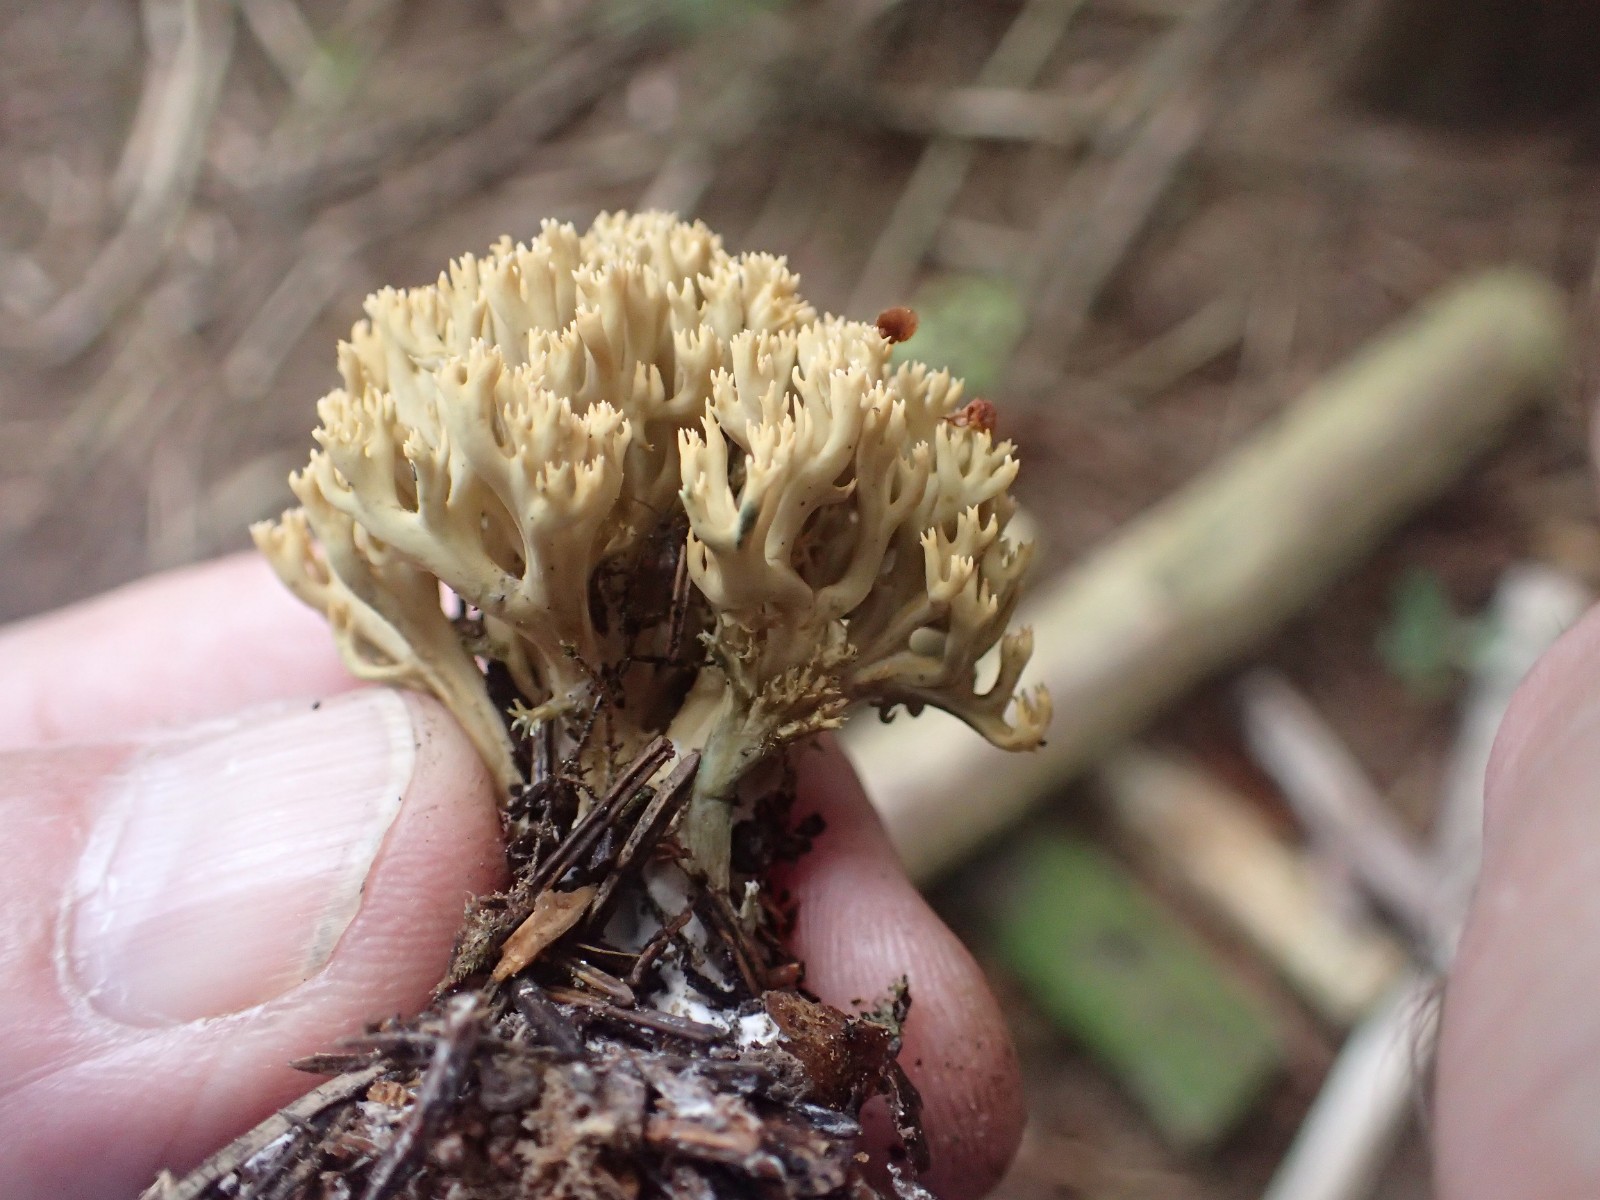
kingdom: Fungi
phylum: Basidiomycota
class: Agaricomycetes
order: Gomphales
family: Gomphaceae
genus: Phaeoclavulina
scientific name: Phaeoclavulina eumorpha
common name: gran-koralsvamp
